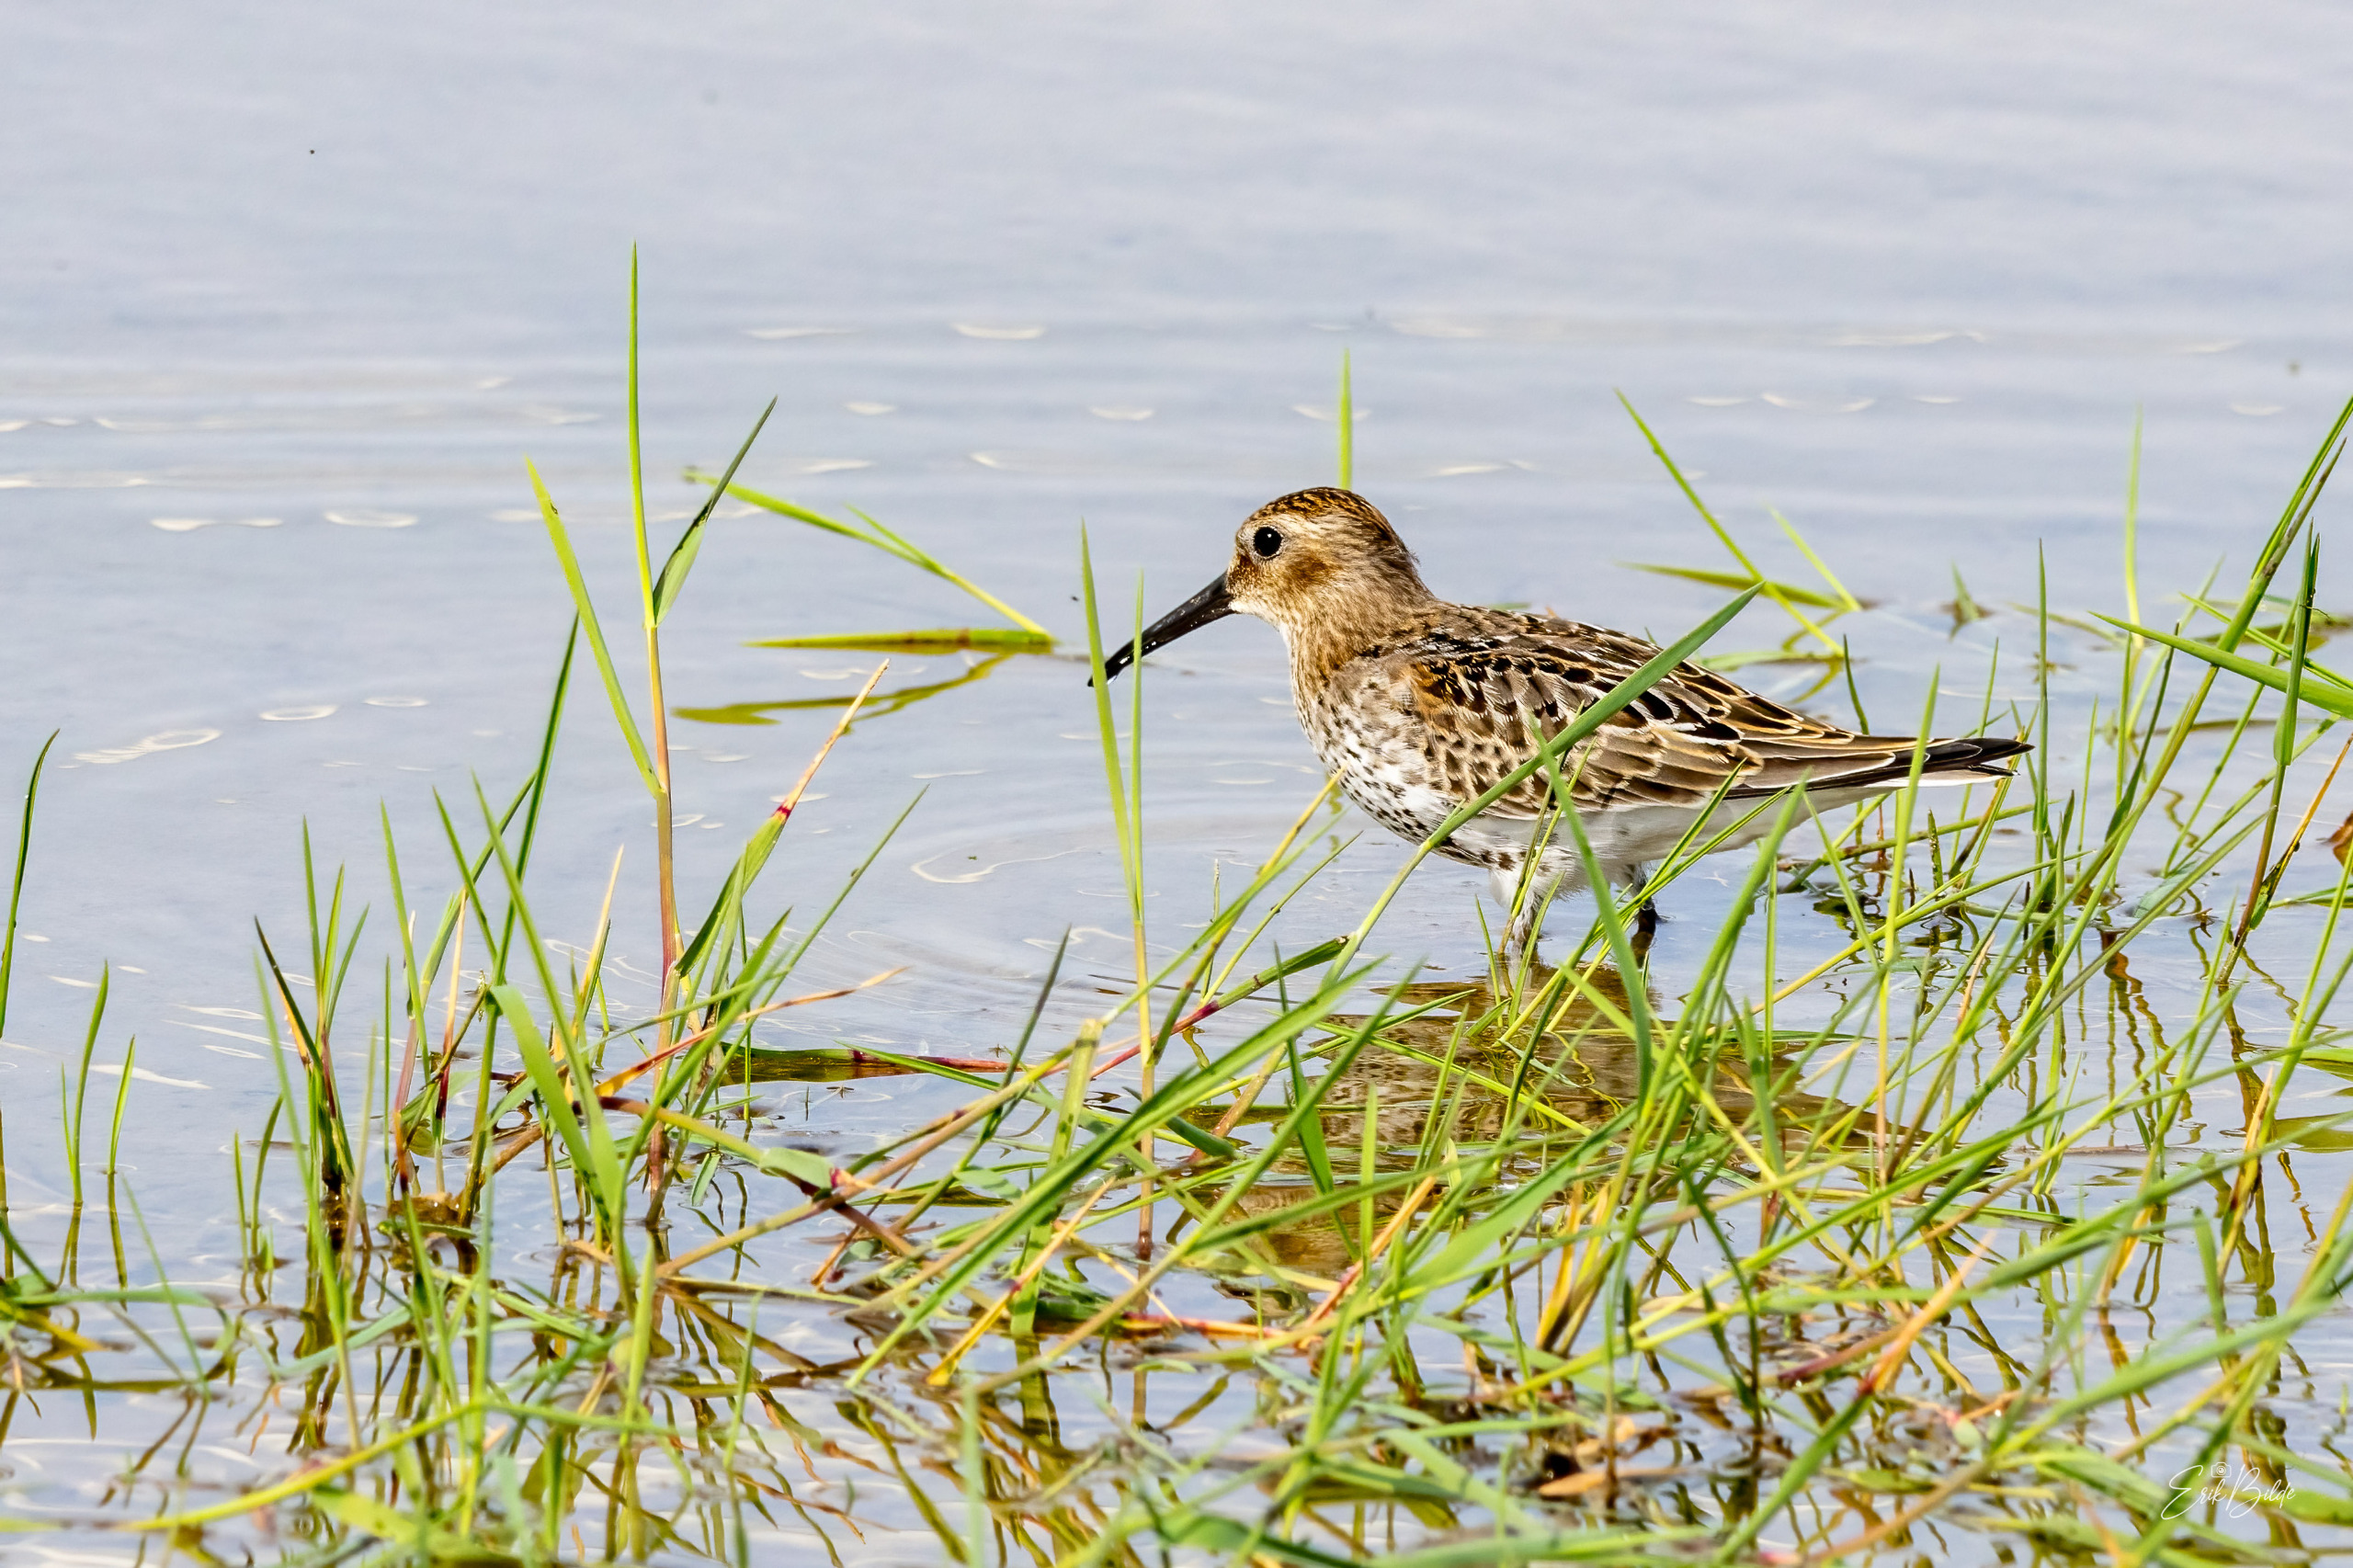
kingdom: Animalia
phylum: Chordata
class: Aves
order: Charadriiformes
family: Scolopacidae
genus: Calidris
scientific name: Calidris alpina
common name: Almindelig ryle
